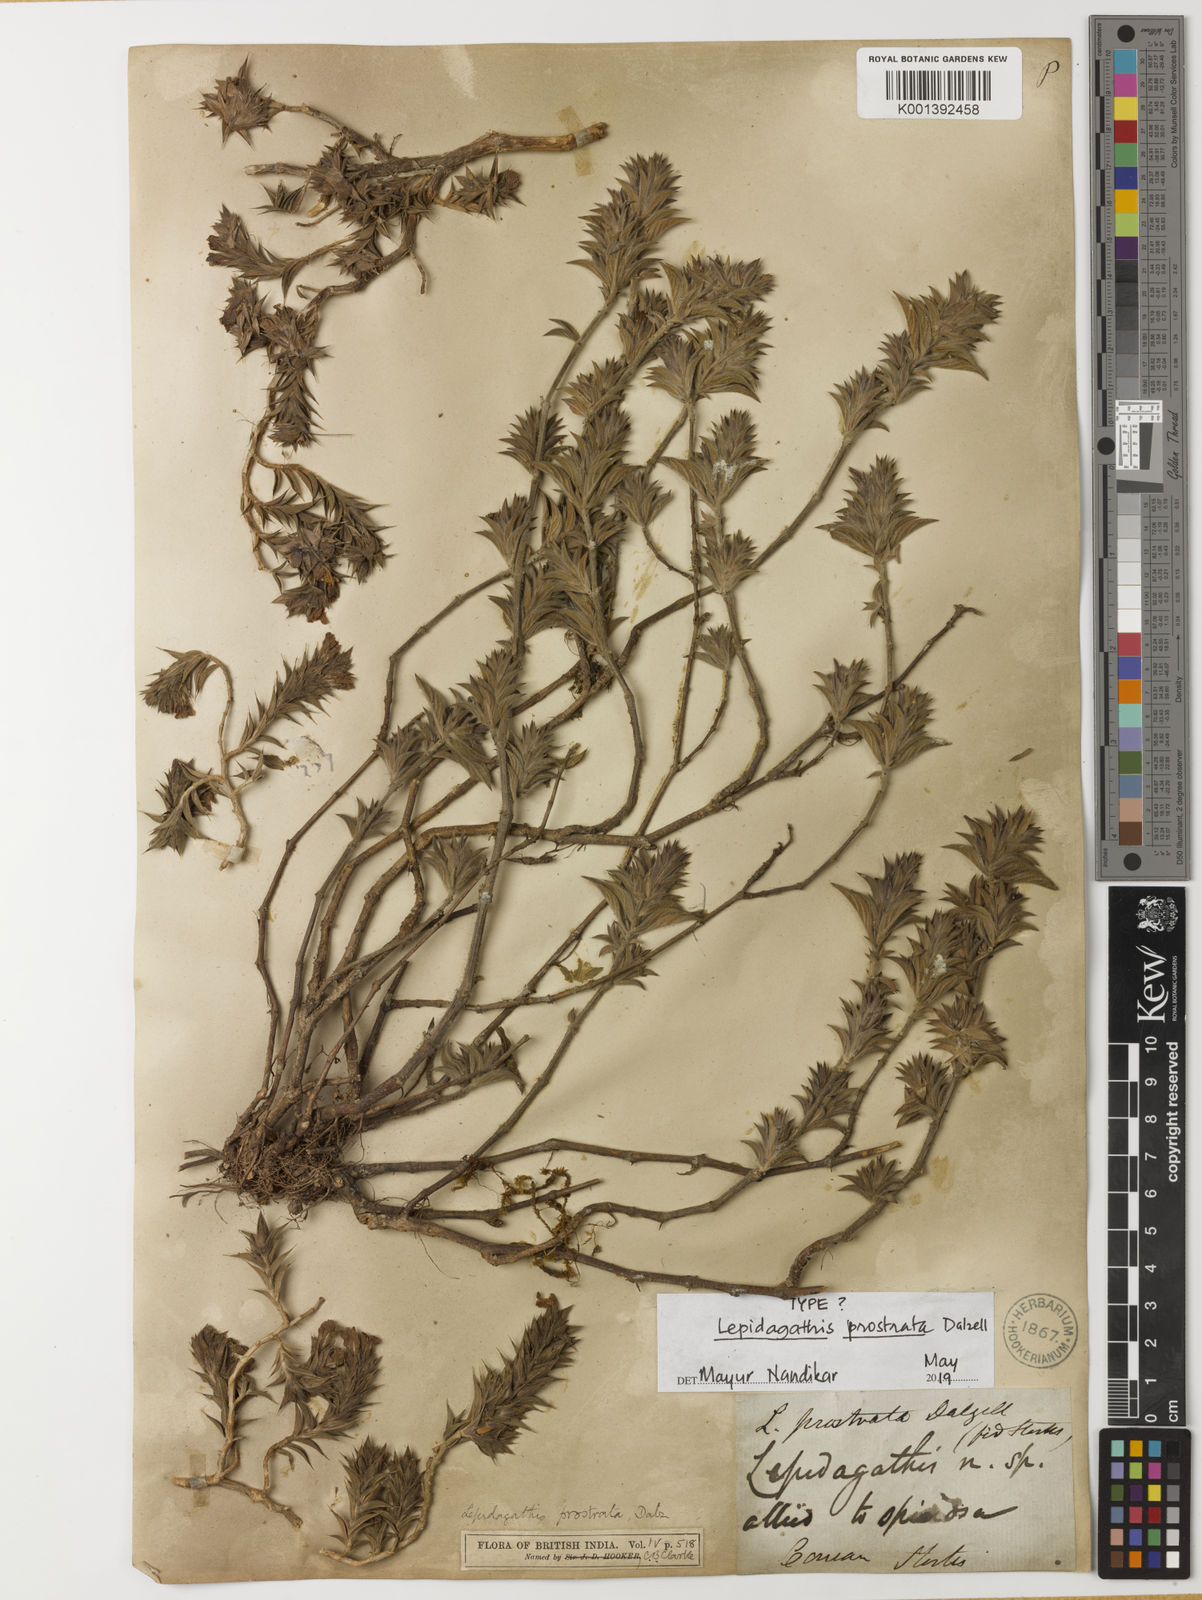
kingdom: Plantae
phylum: Tracheophyta
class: Magnoliopsida
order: Lamiales
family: Acanthaceae
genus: Lepidagathis
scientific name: Lepidagathis prostrata
